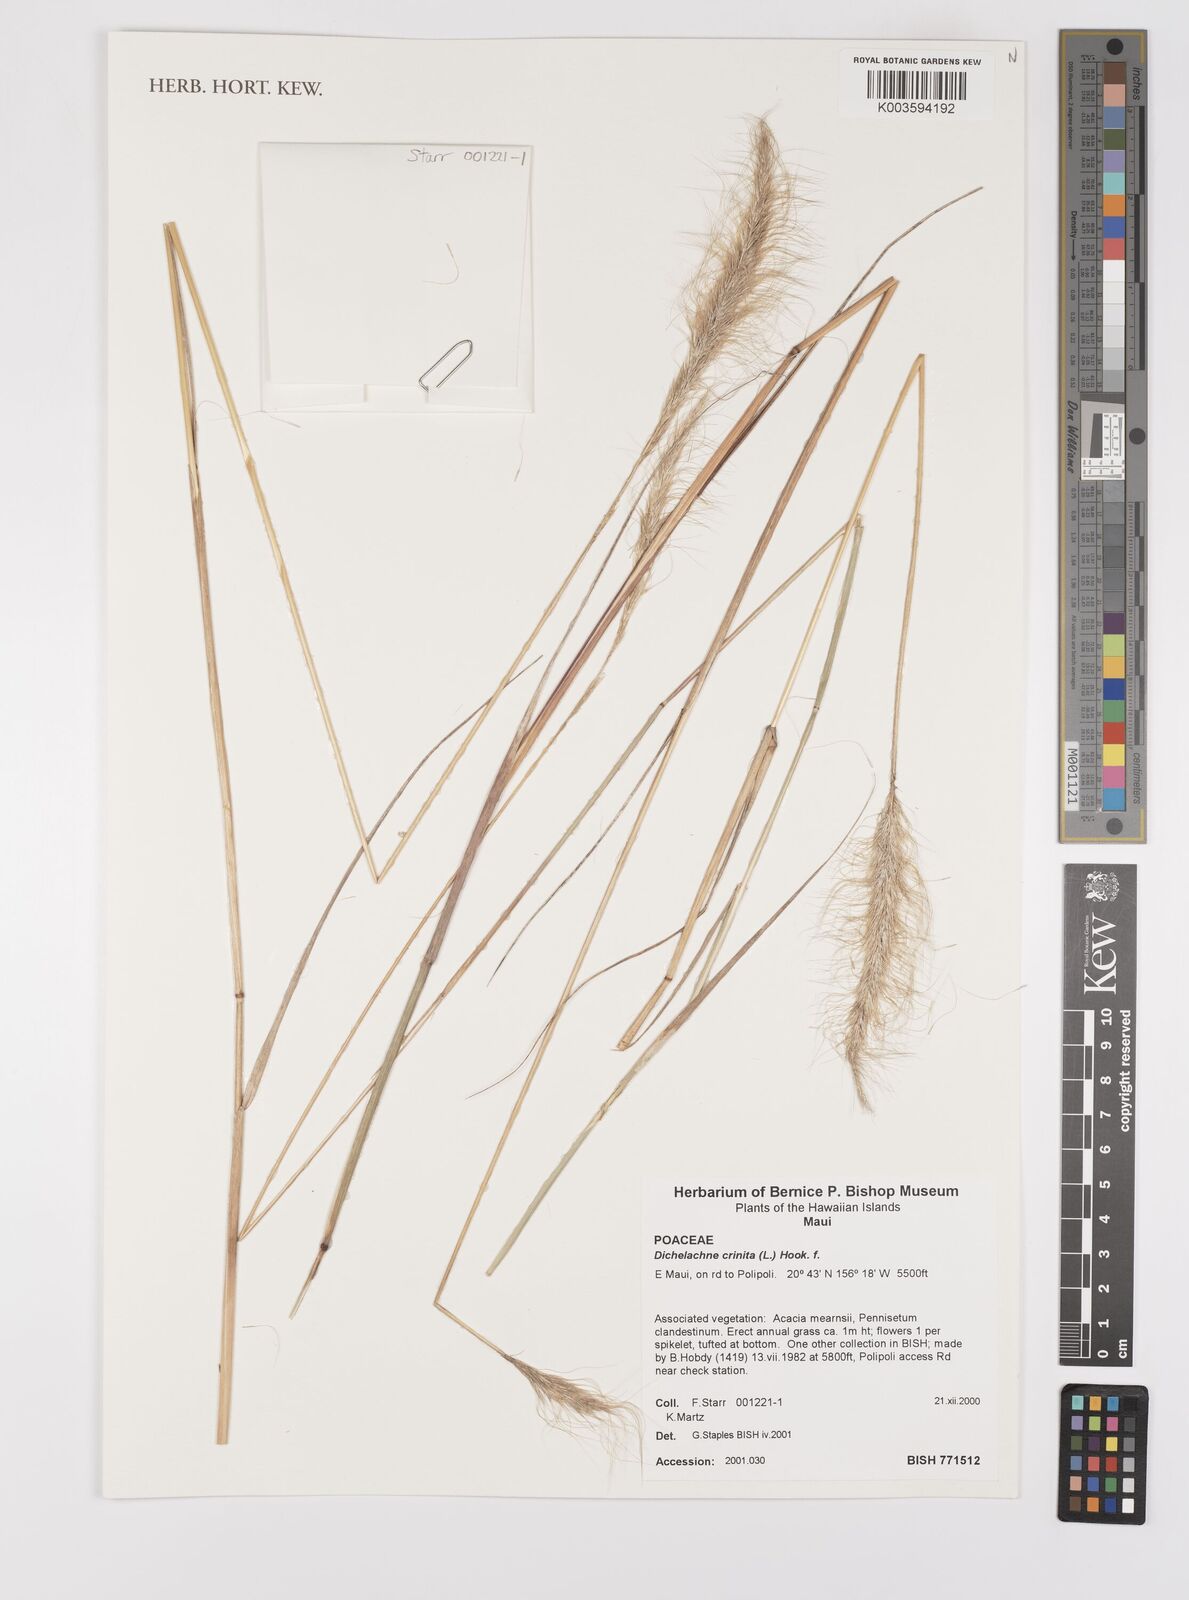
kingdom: Plantae
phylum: Tracheophyta
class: Liliopsida
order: Poales
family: Poaceae
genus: Dichelachne
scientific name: Dichelachne crinita
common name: Clovenfoot plumegrass
